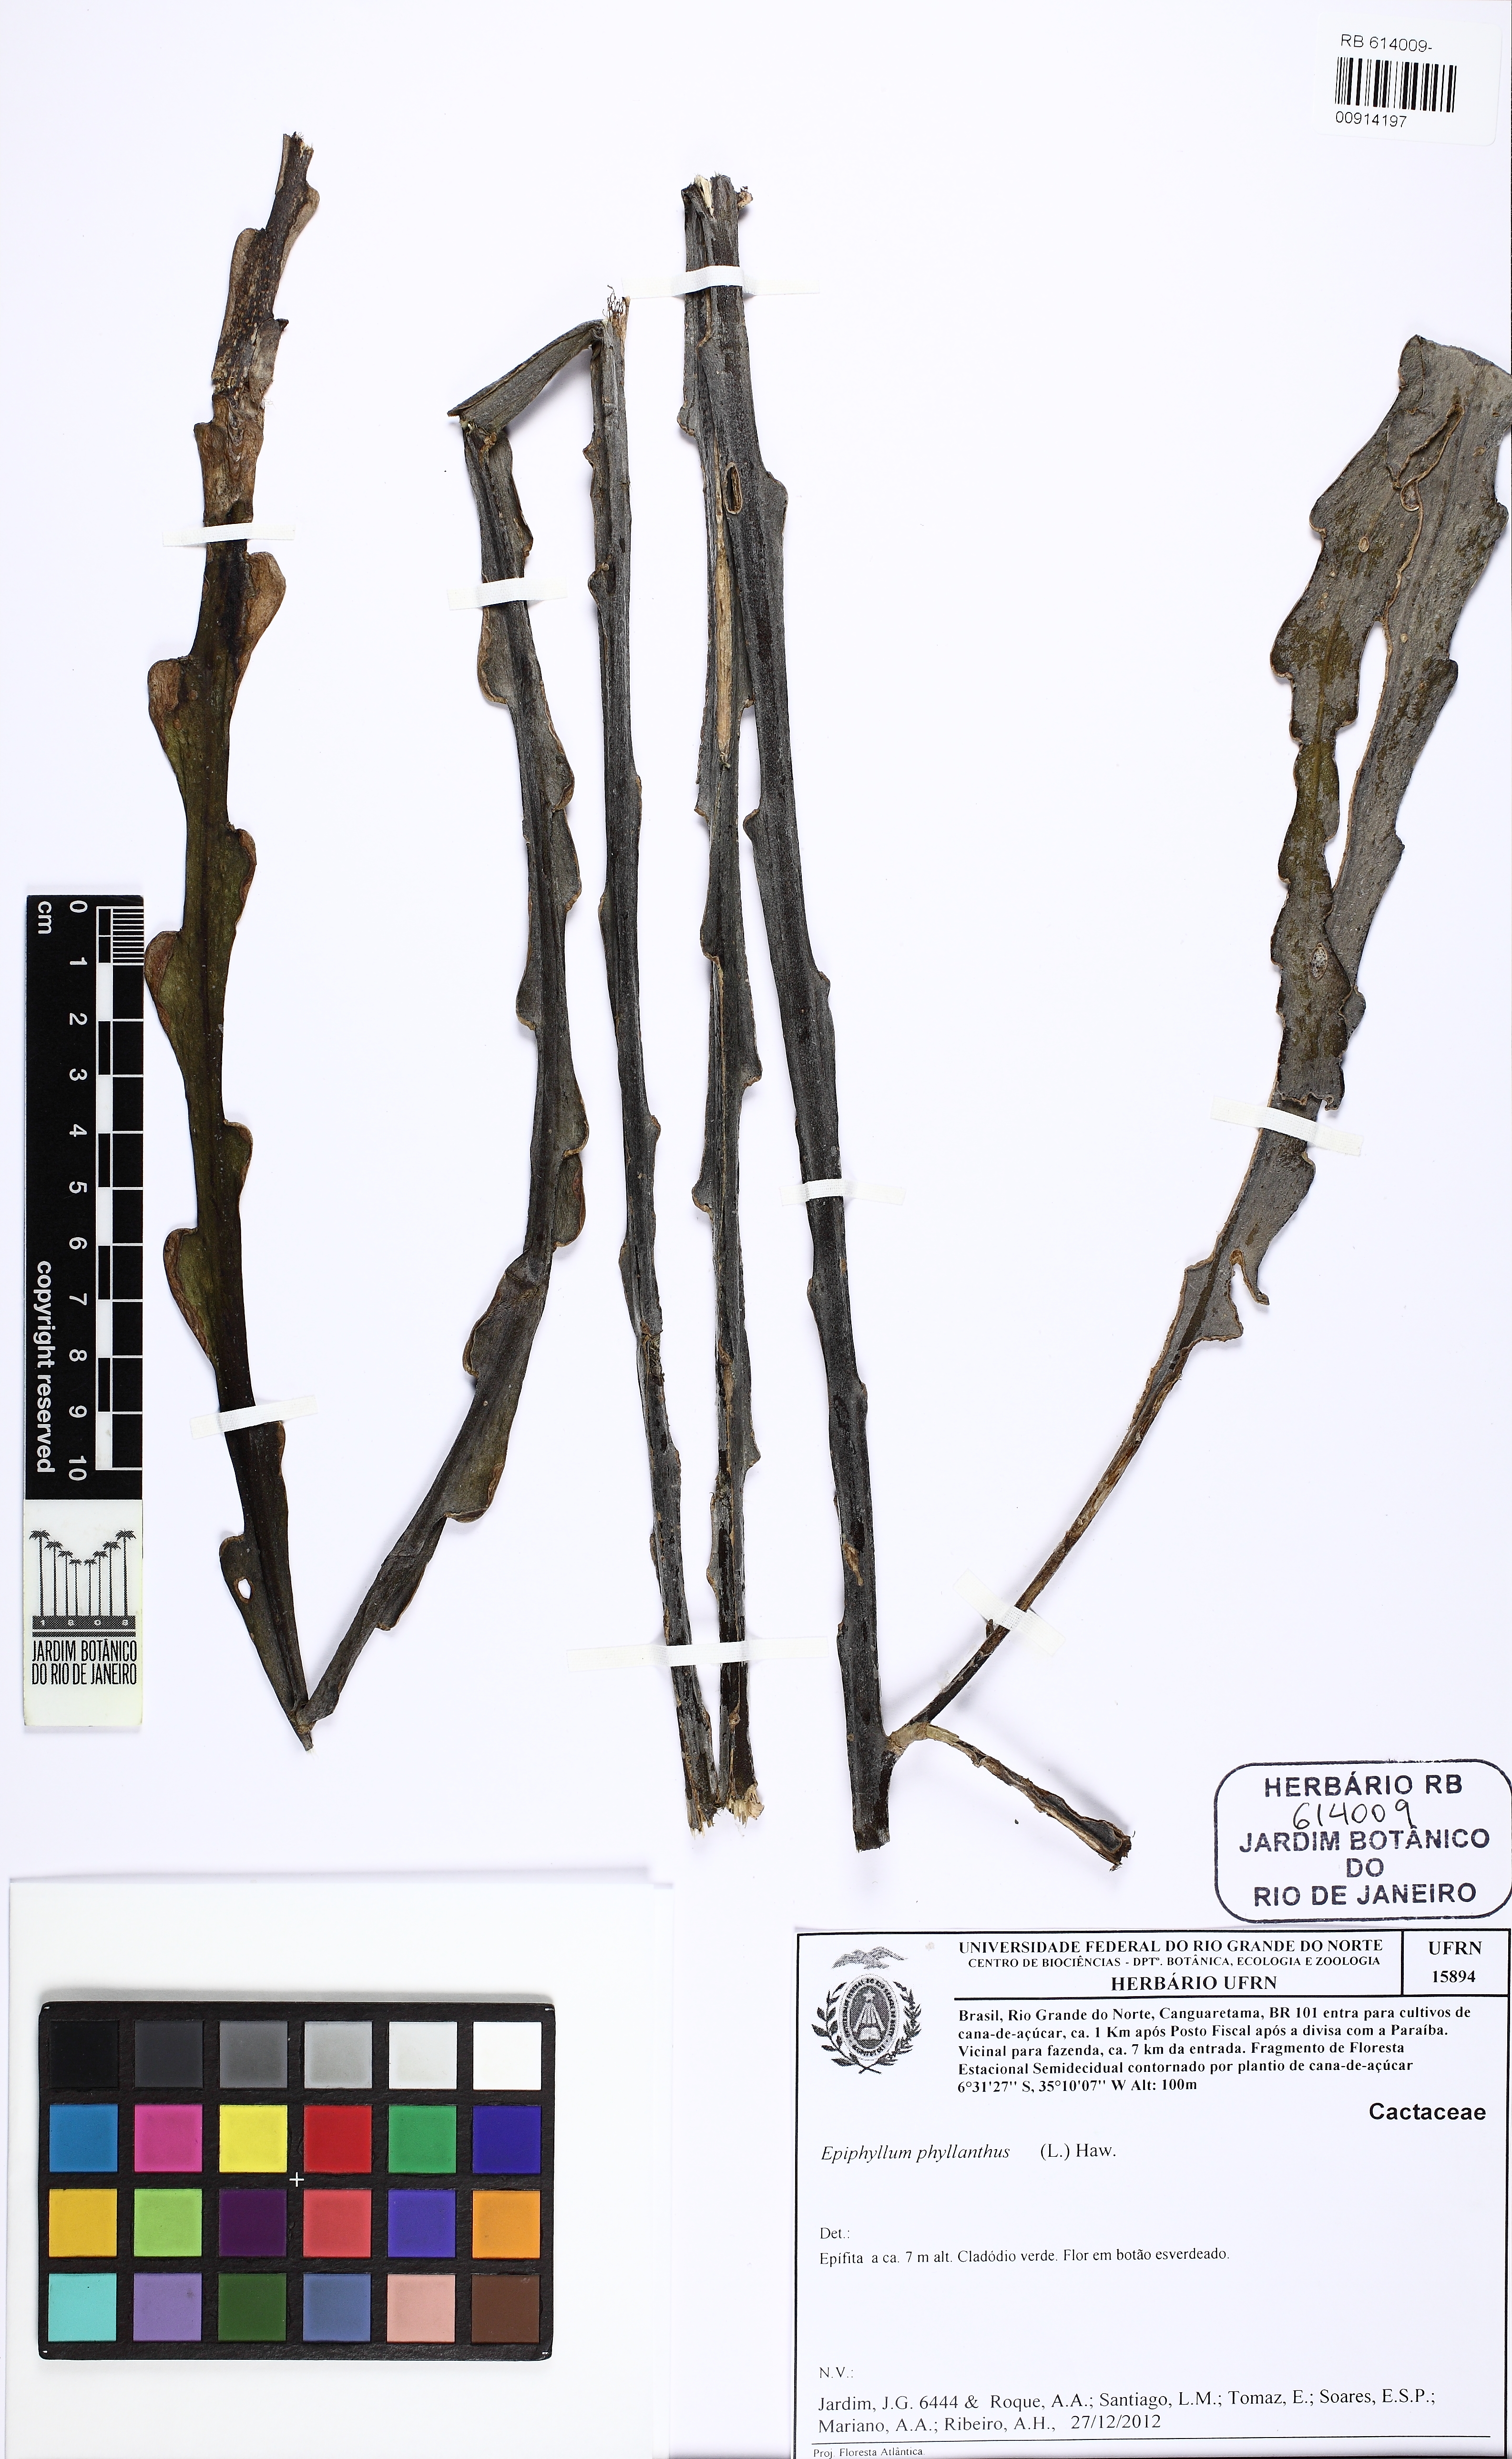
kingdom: Plantae
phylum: Tracheophyta
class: Magnoliopsida
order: Caryophyllales
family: Cactaceae
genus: Epiphyllum
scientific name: Epiphyllum phyllanthus
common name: Climbing cactus
